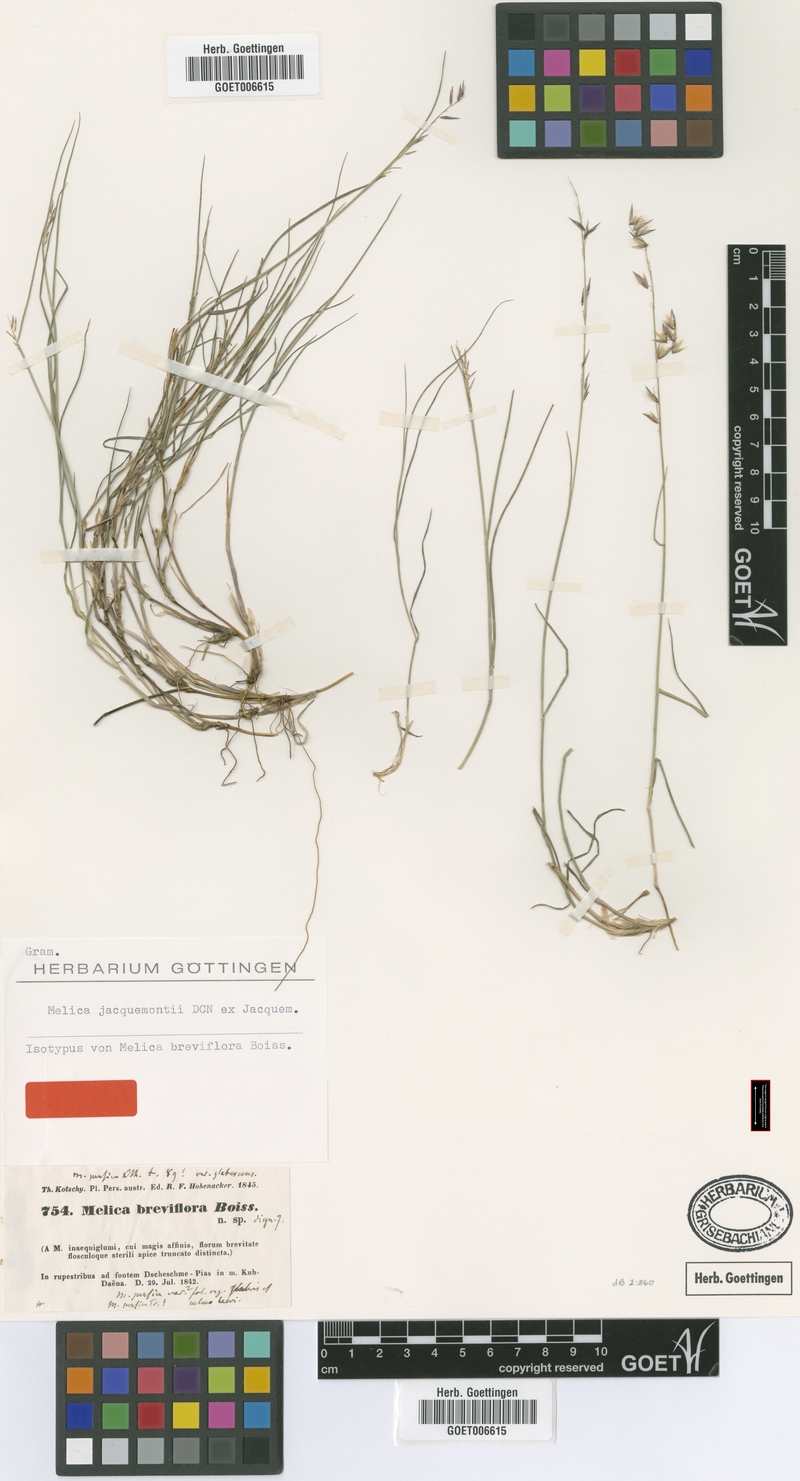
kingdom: Plantae
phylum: Tracheophyta
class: Liliopsida
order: Poales
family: Poaceae
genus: Melica
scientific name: Melica persica
